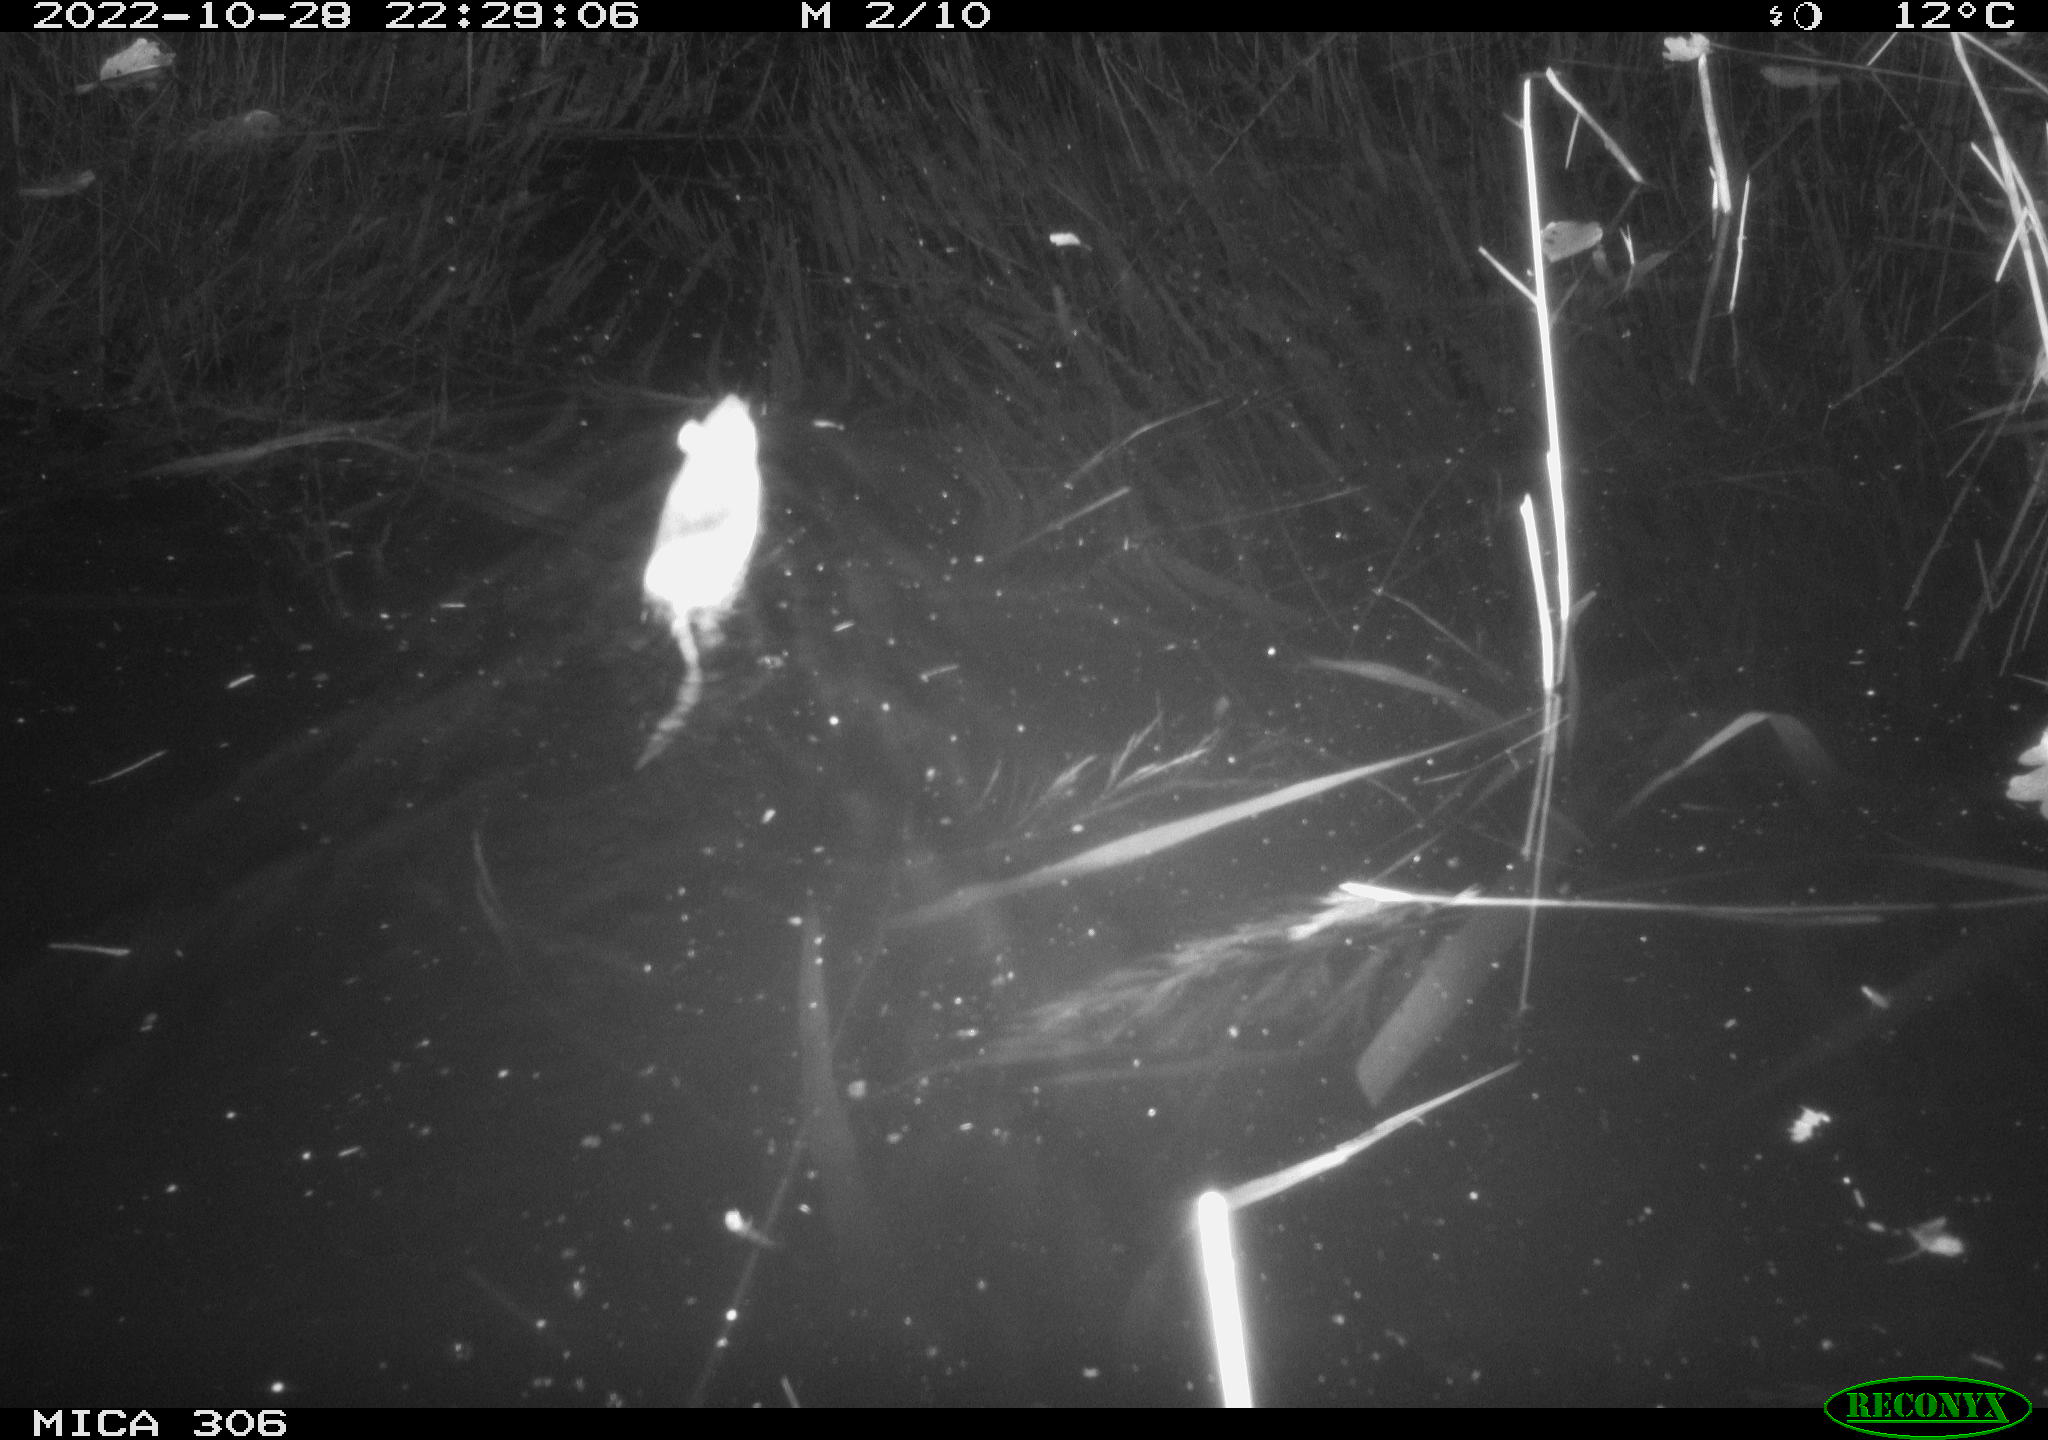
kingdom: Animalia
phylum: Chordata
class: Mammalia
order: Rodentia
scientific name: Rodentia
